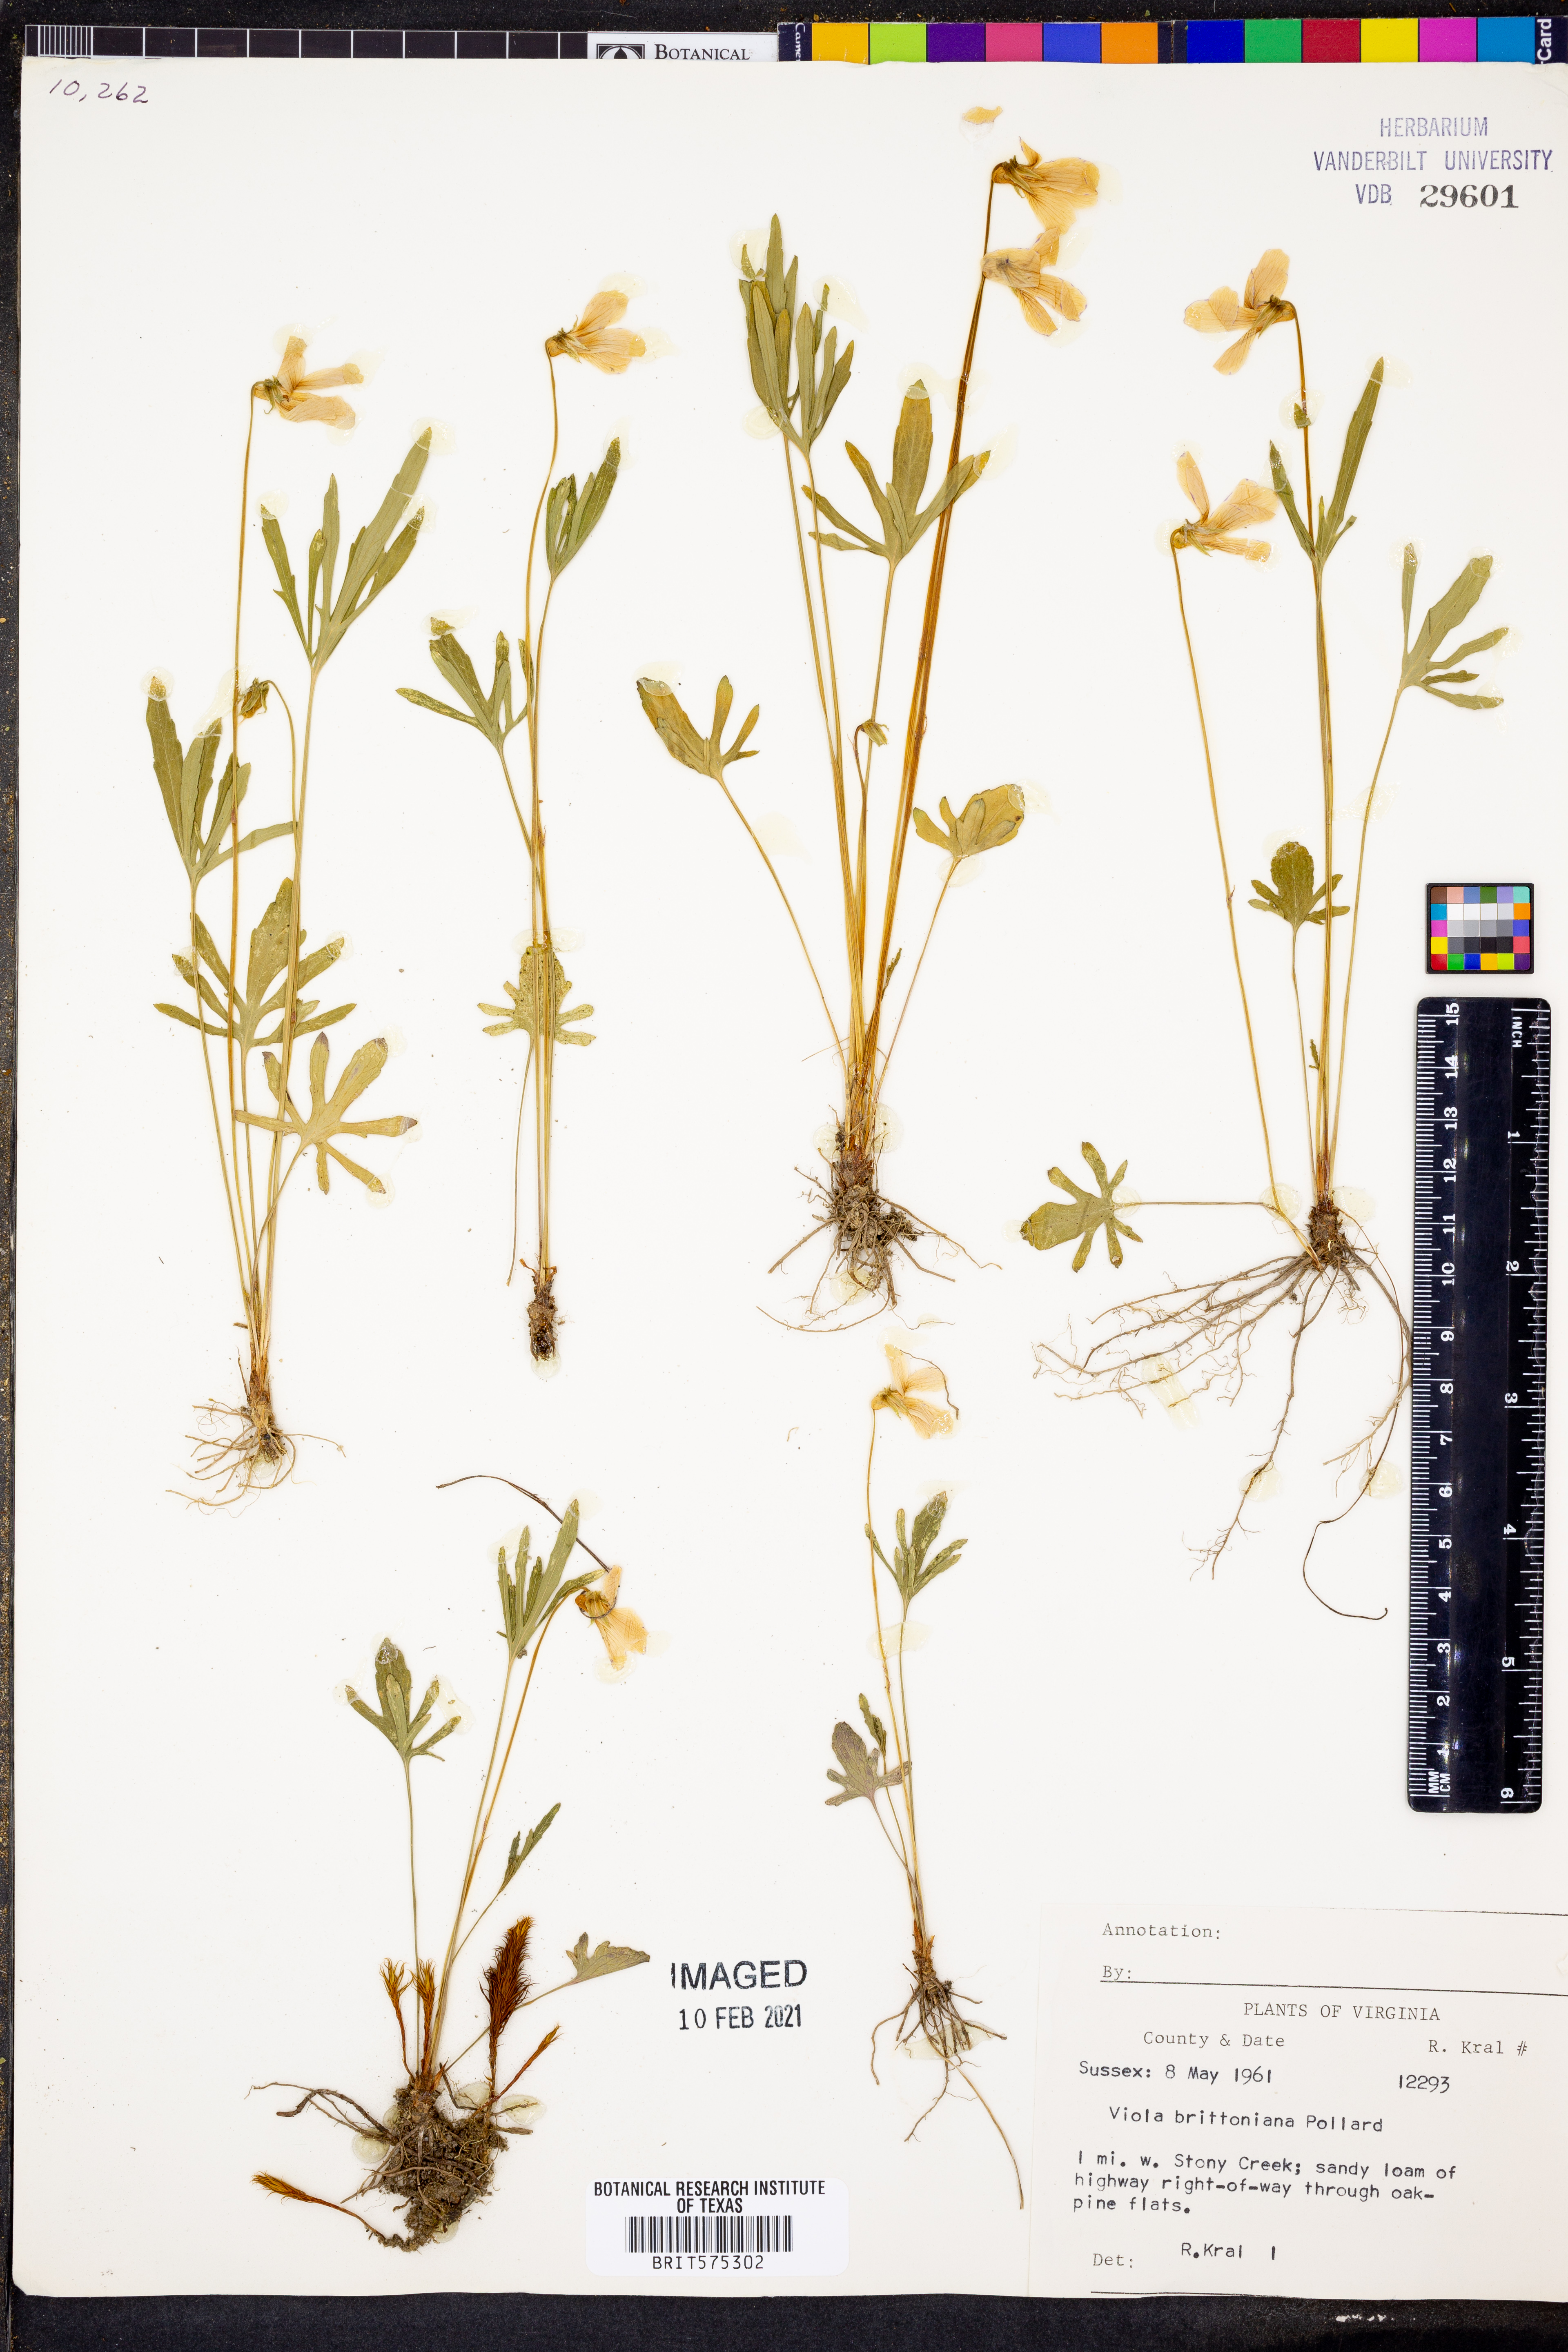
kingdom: Plantae
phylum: Tracheophyta
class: Magnoliopsida
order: Malpighiales
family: Violaceae
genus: Viola
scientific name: Viola brittoniana
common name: Northern coastal violet
